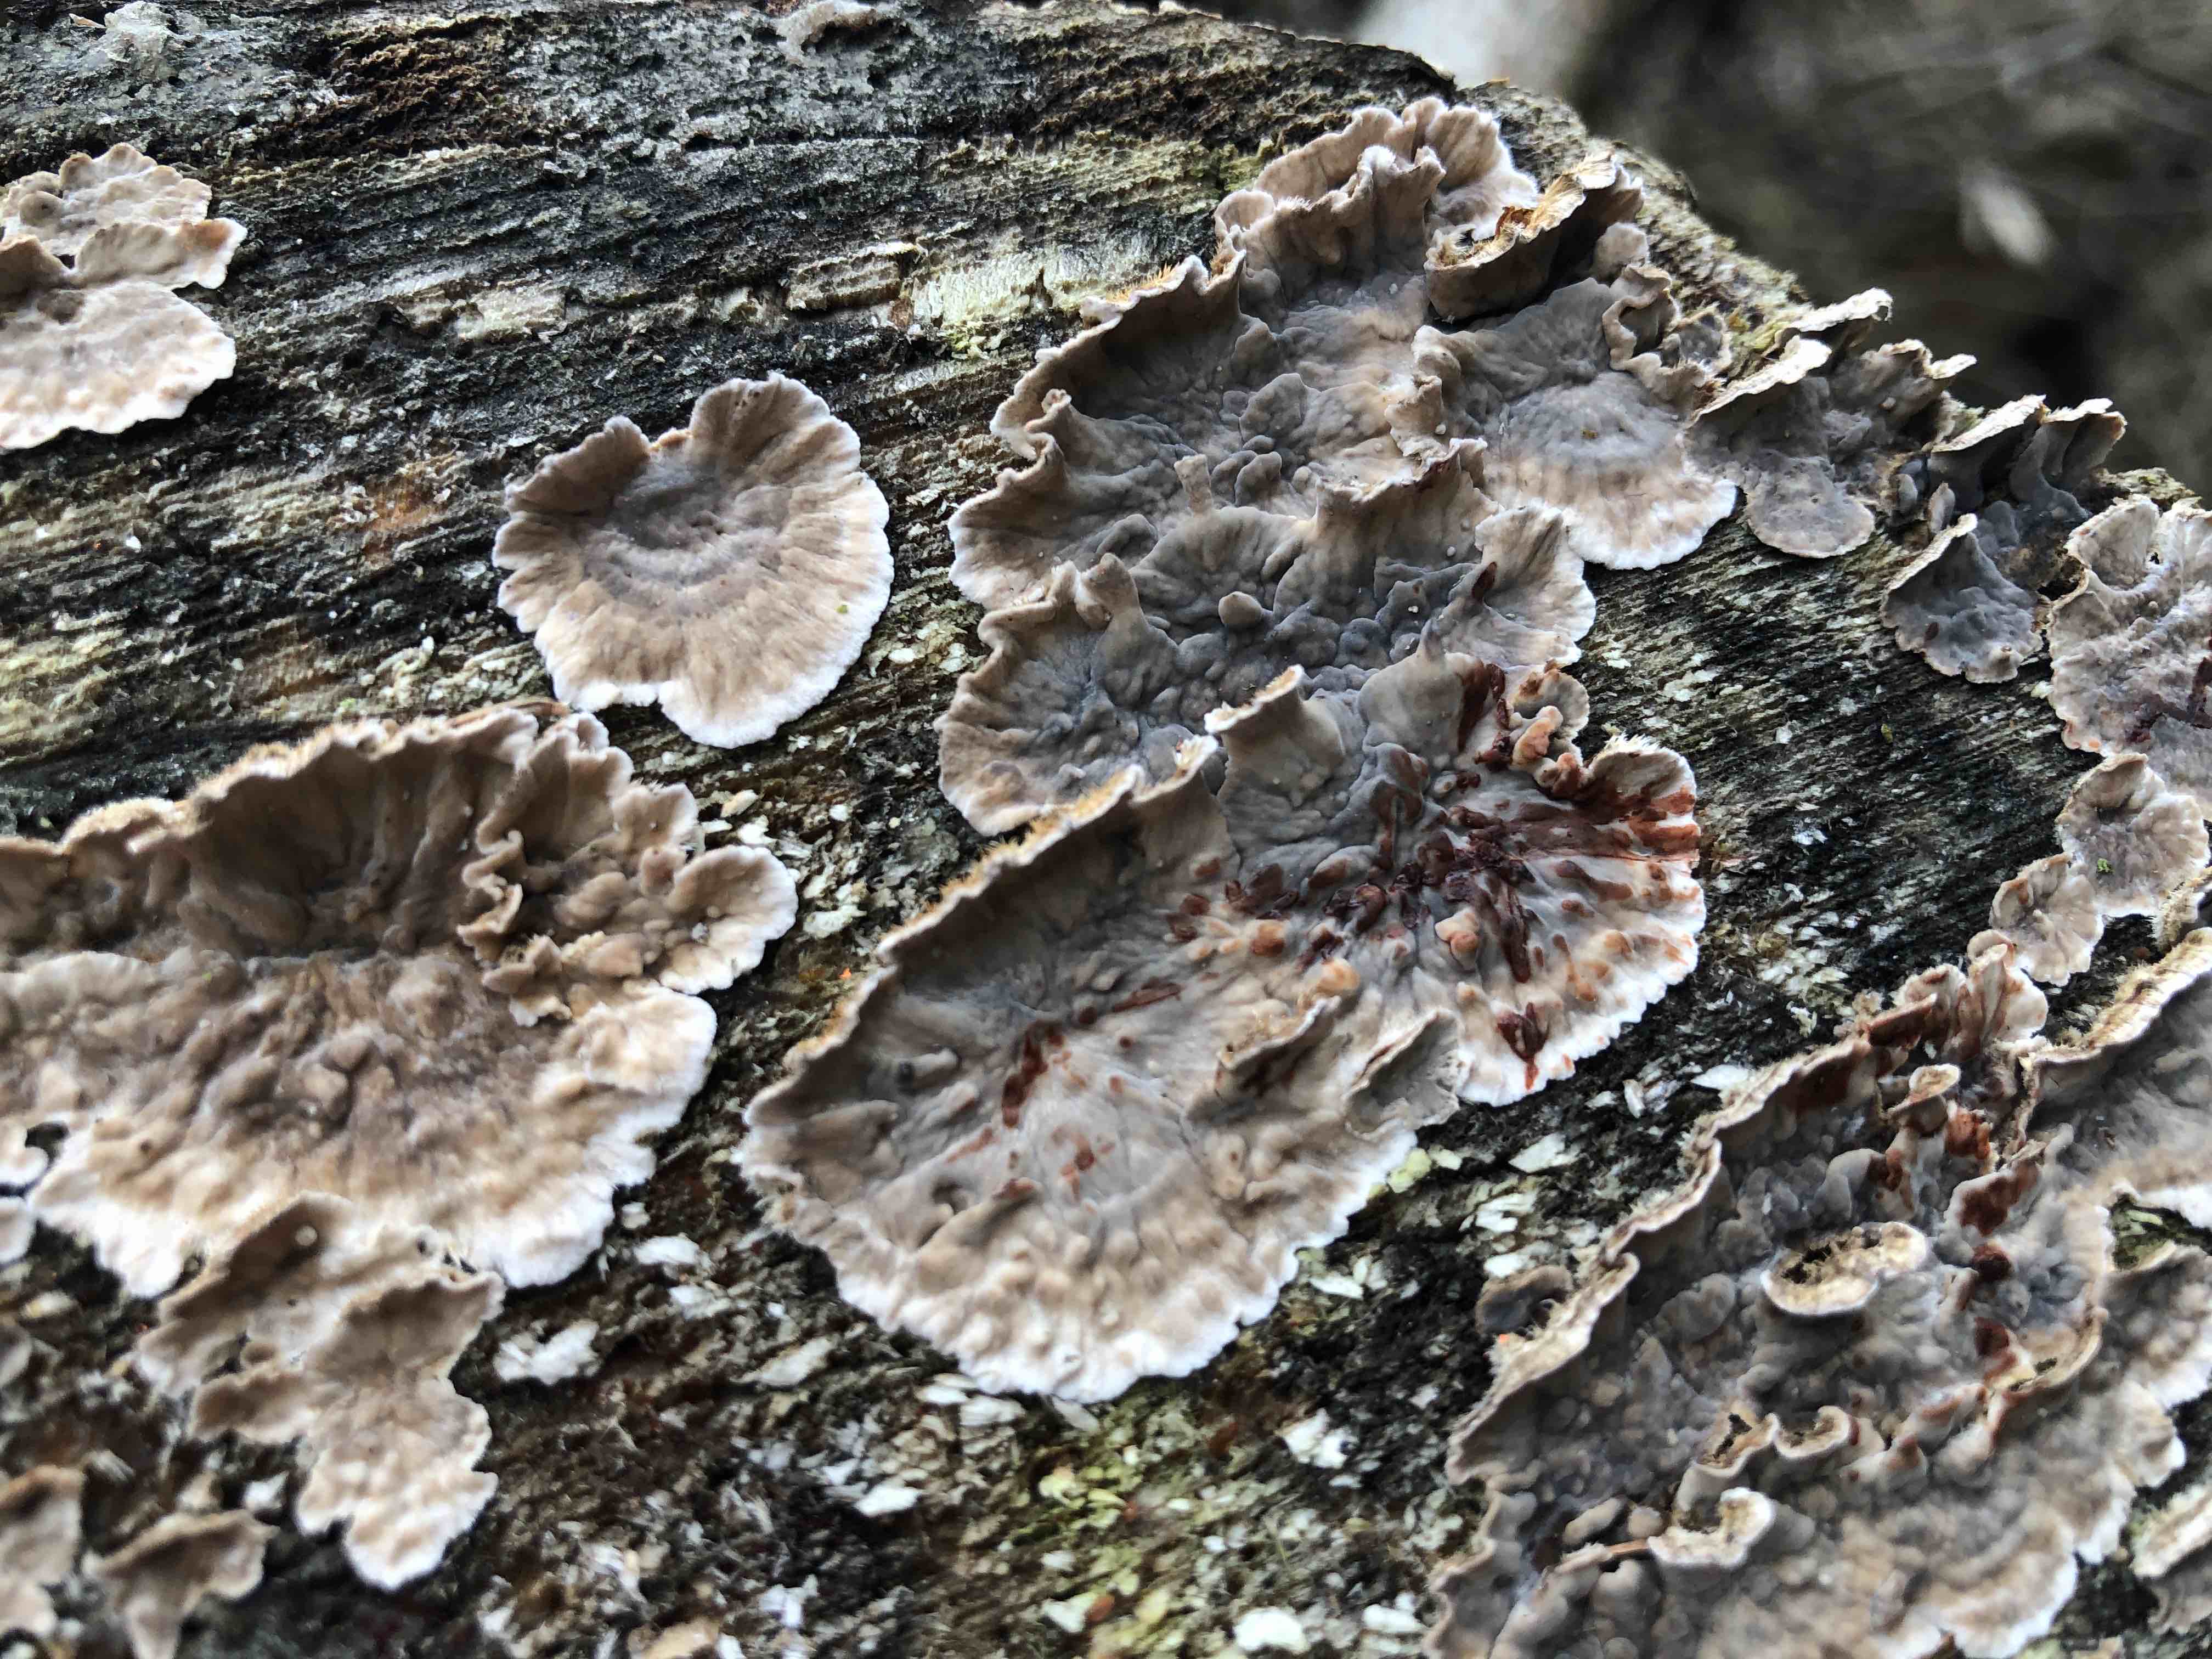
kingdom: Fungi
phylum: Basidiomycota
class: Agaricomycetes
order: Russulales
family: Stereaceae
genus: Stereum
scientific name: Stereum sanguinolentum
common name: blødende lædersvamp
